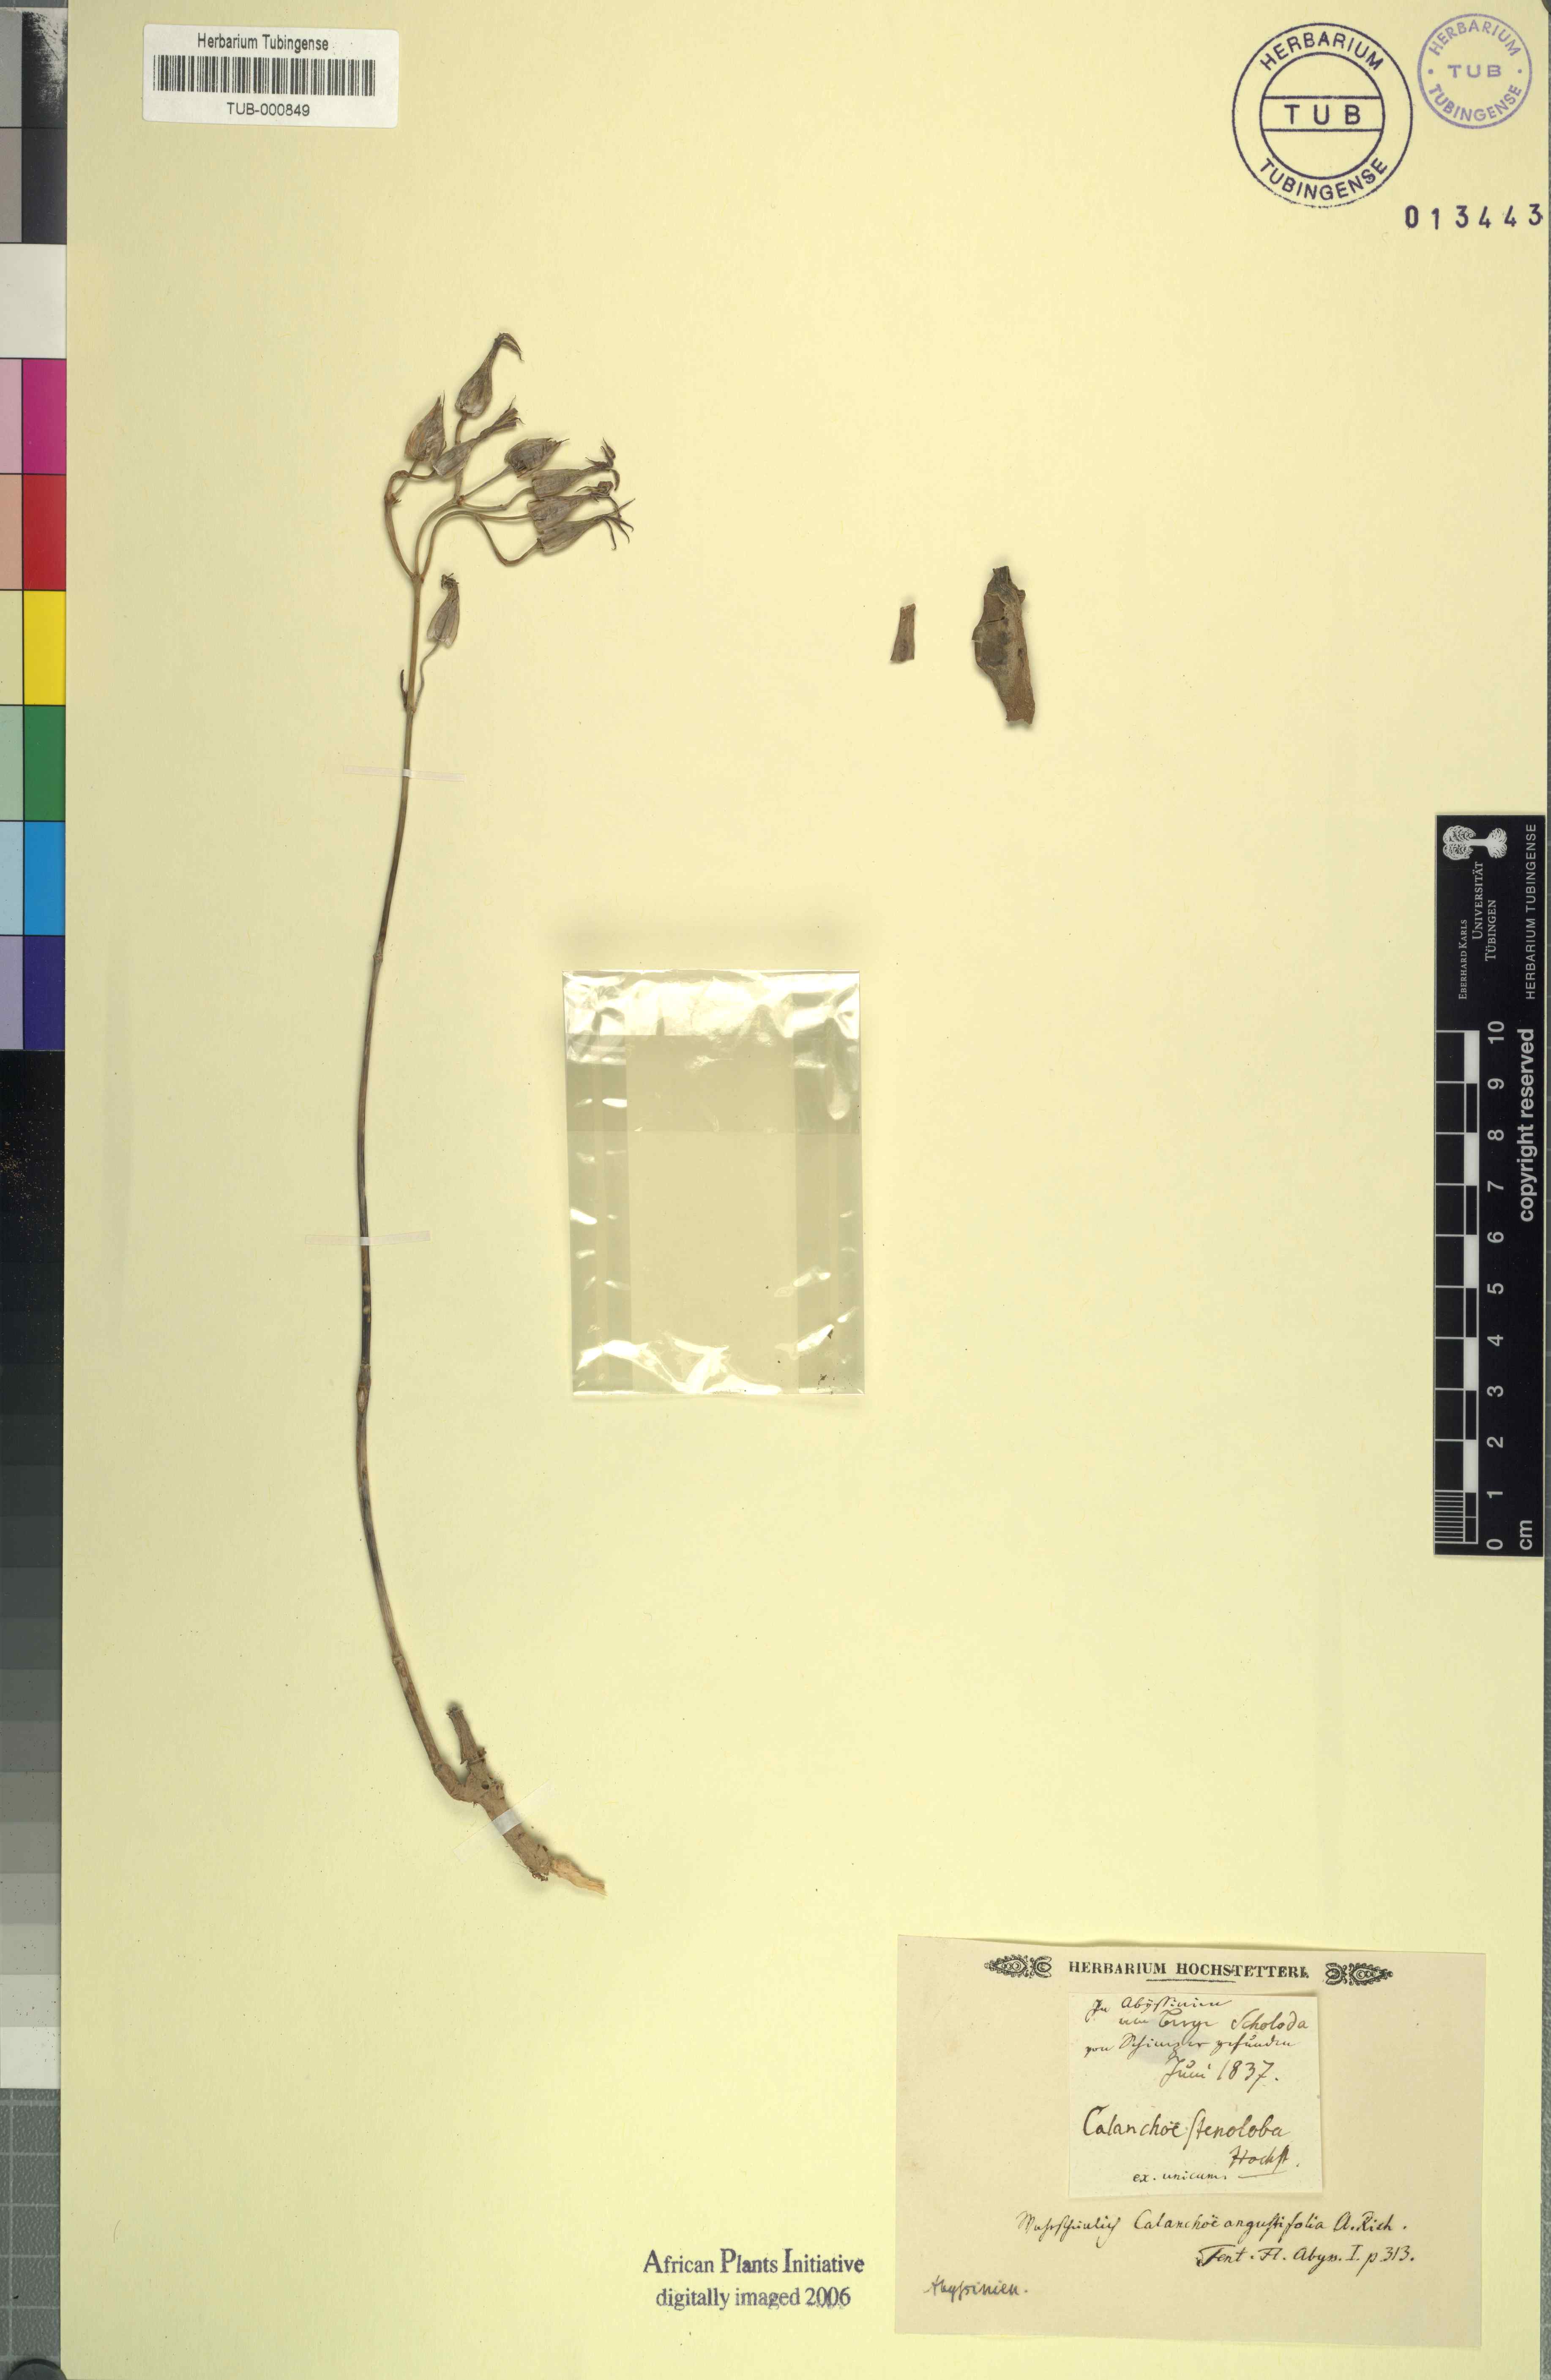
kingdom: Plantae
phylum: Tracheophyta
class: Magnoliopsida
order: Saxifragales
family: Crassulaceae
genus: Kalanchoe
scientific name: Kalanchoe laciniata
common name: Christmastree plant
